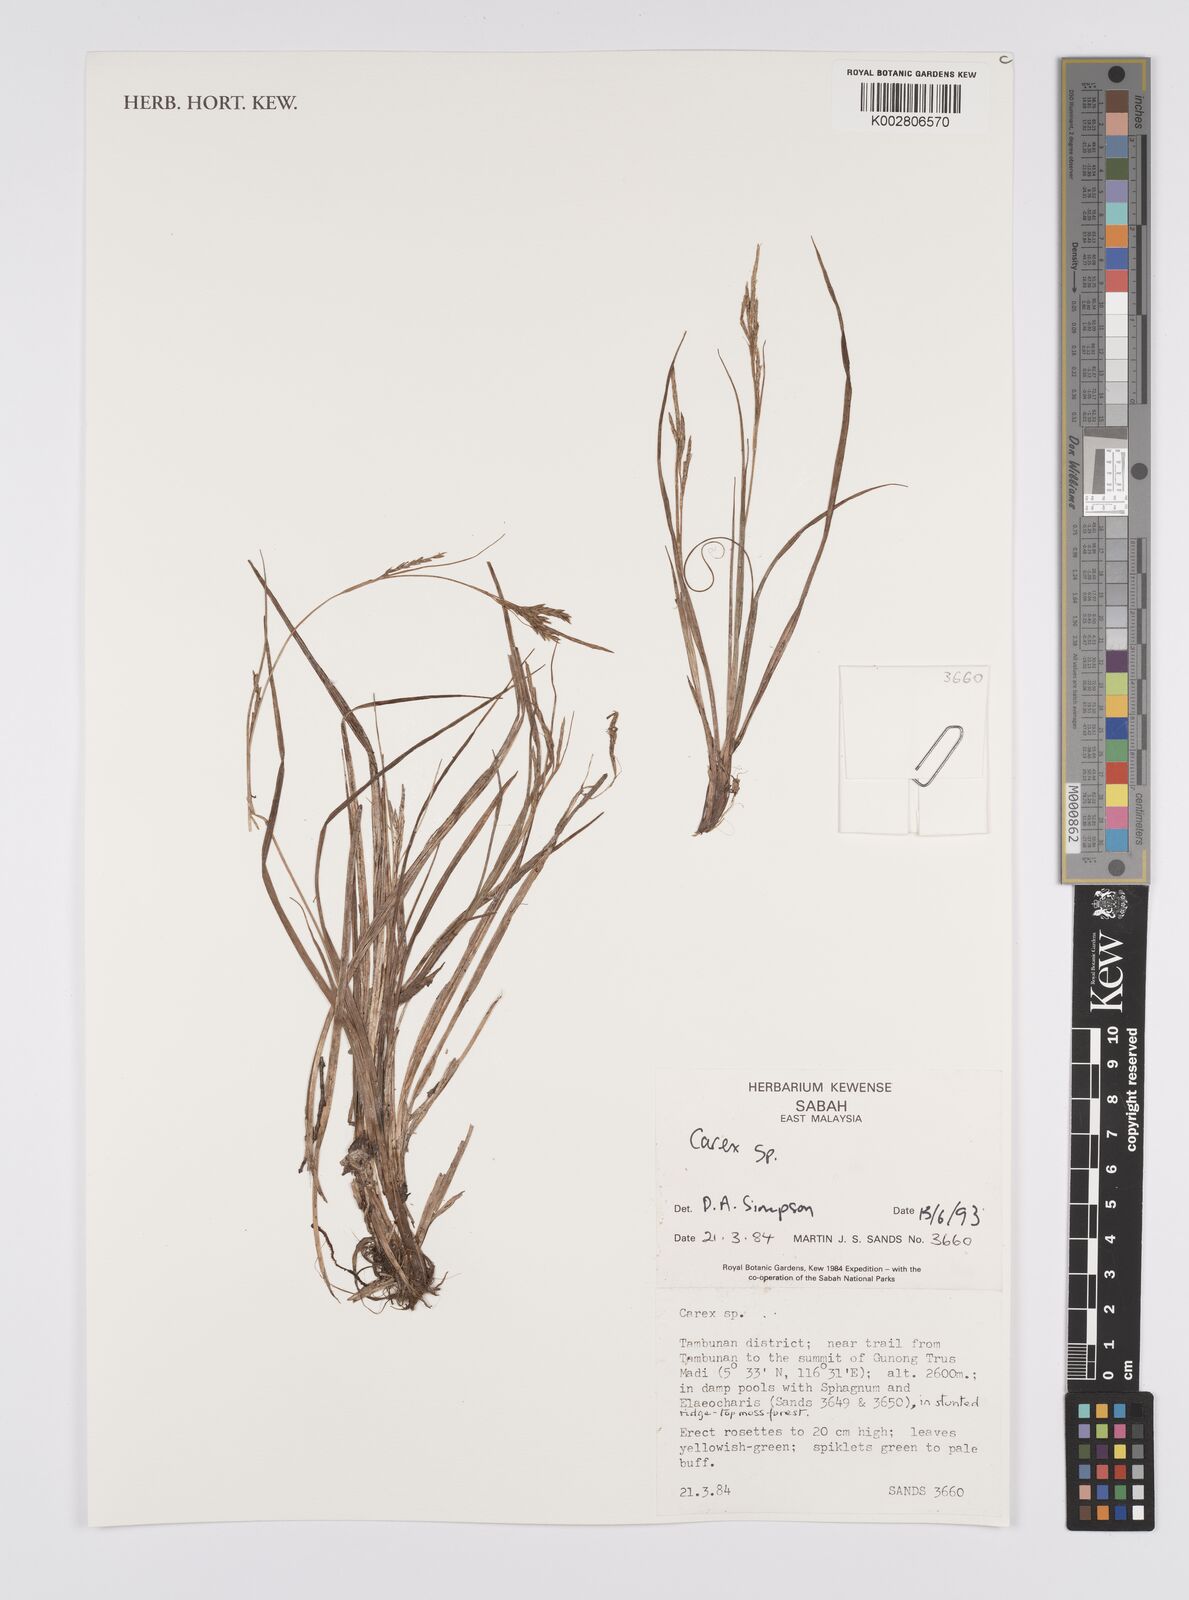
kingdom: Plantae
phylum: Tracheophyta
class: Liliopsida
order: Poales
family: Cyperaceae
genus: Carex
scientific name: Carex
